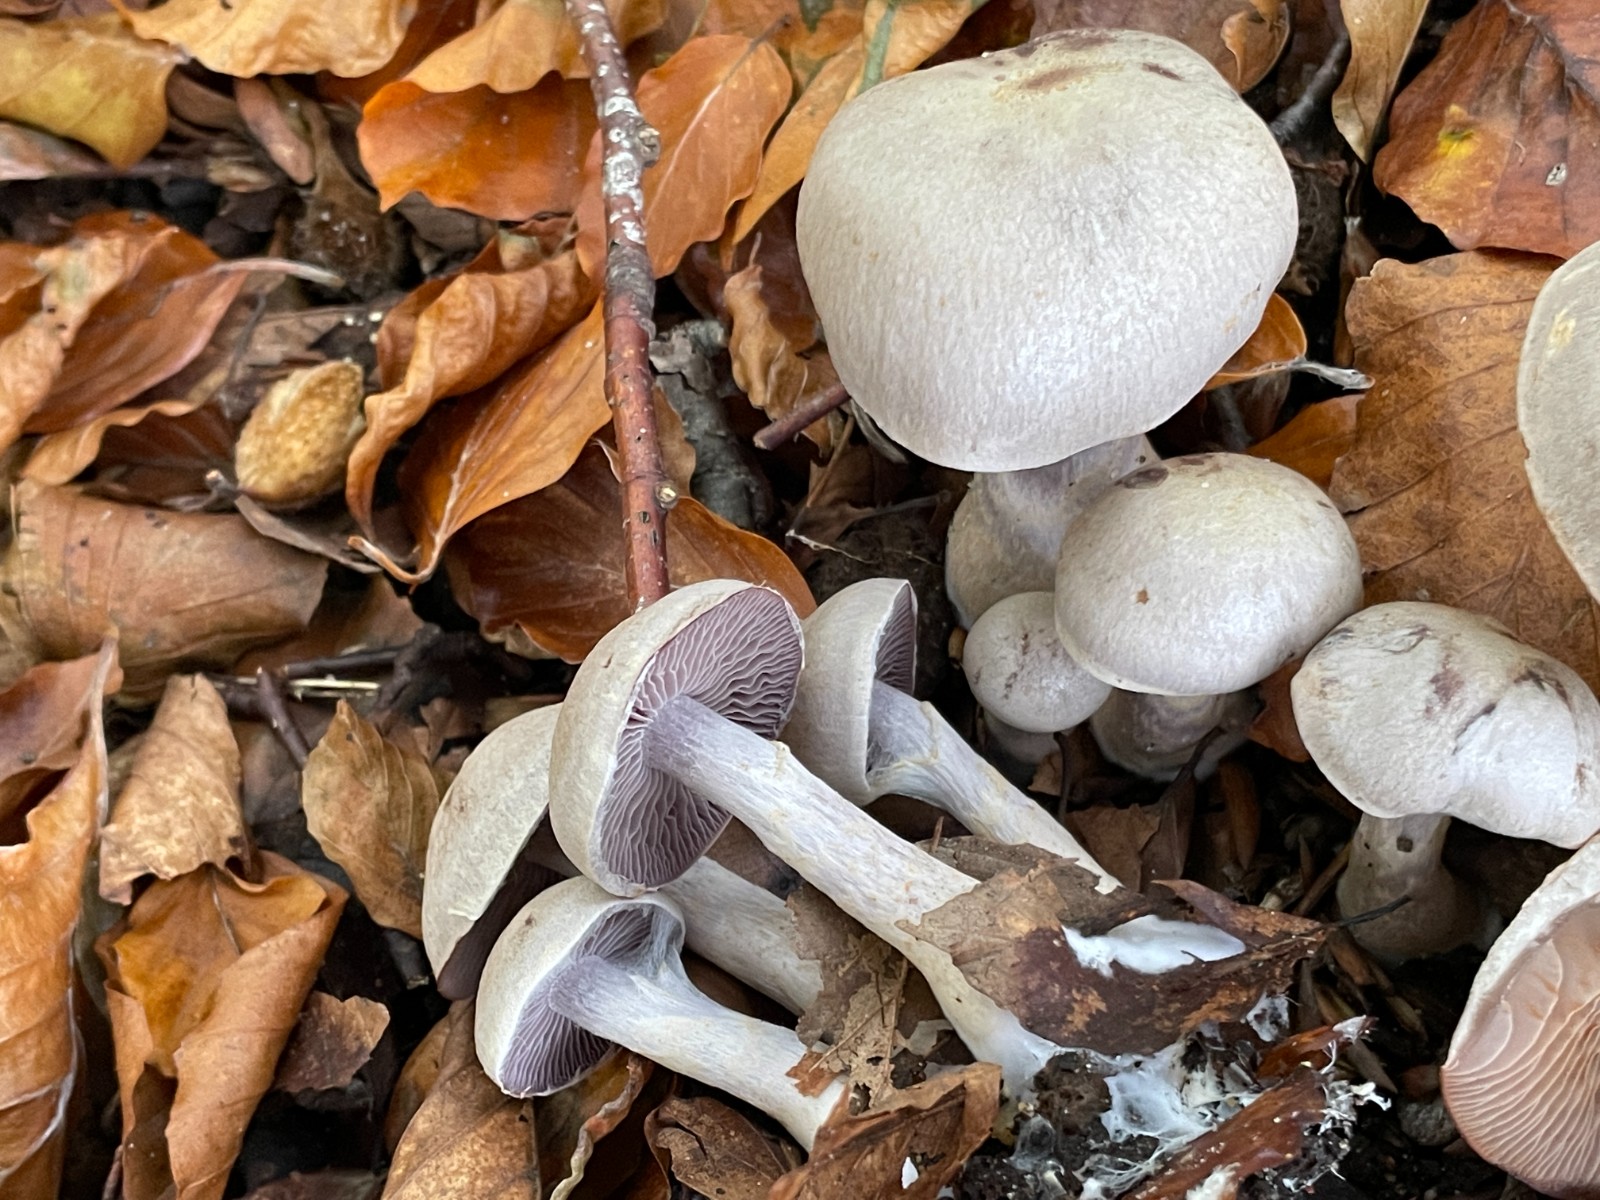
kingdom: Fungi
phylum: Basidiomycota
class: Agaricomycetes
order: Agaricales
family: Cortinariaceae
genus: Cortinarius
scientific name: Cortinarius
